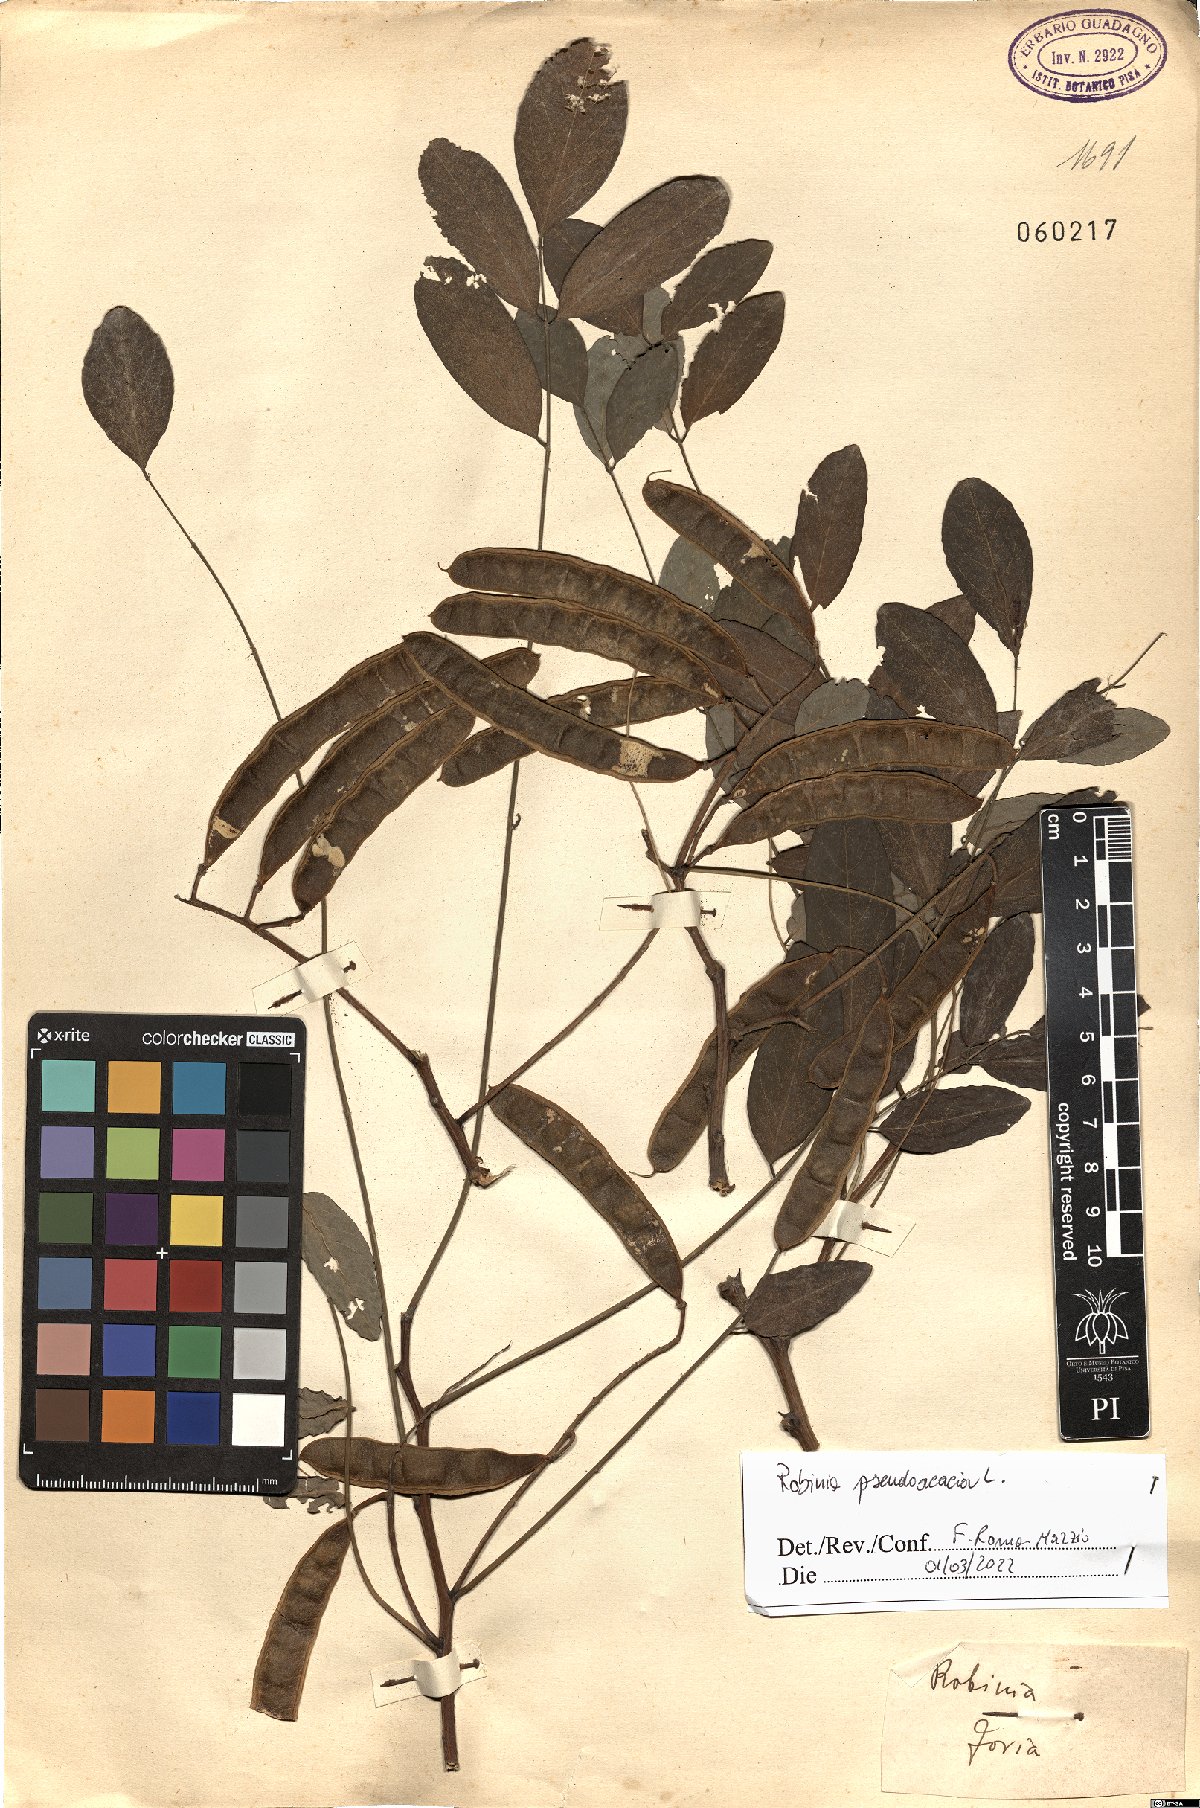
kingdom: Plantae
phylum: Tracheophyta
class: Magnoliopsida
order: Fabales
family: Fabaceae
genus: Robinia
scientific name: Robinia pseudoacacia
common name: Black locust
